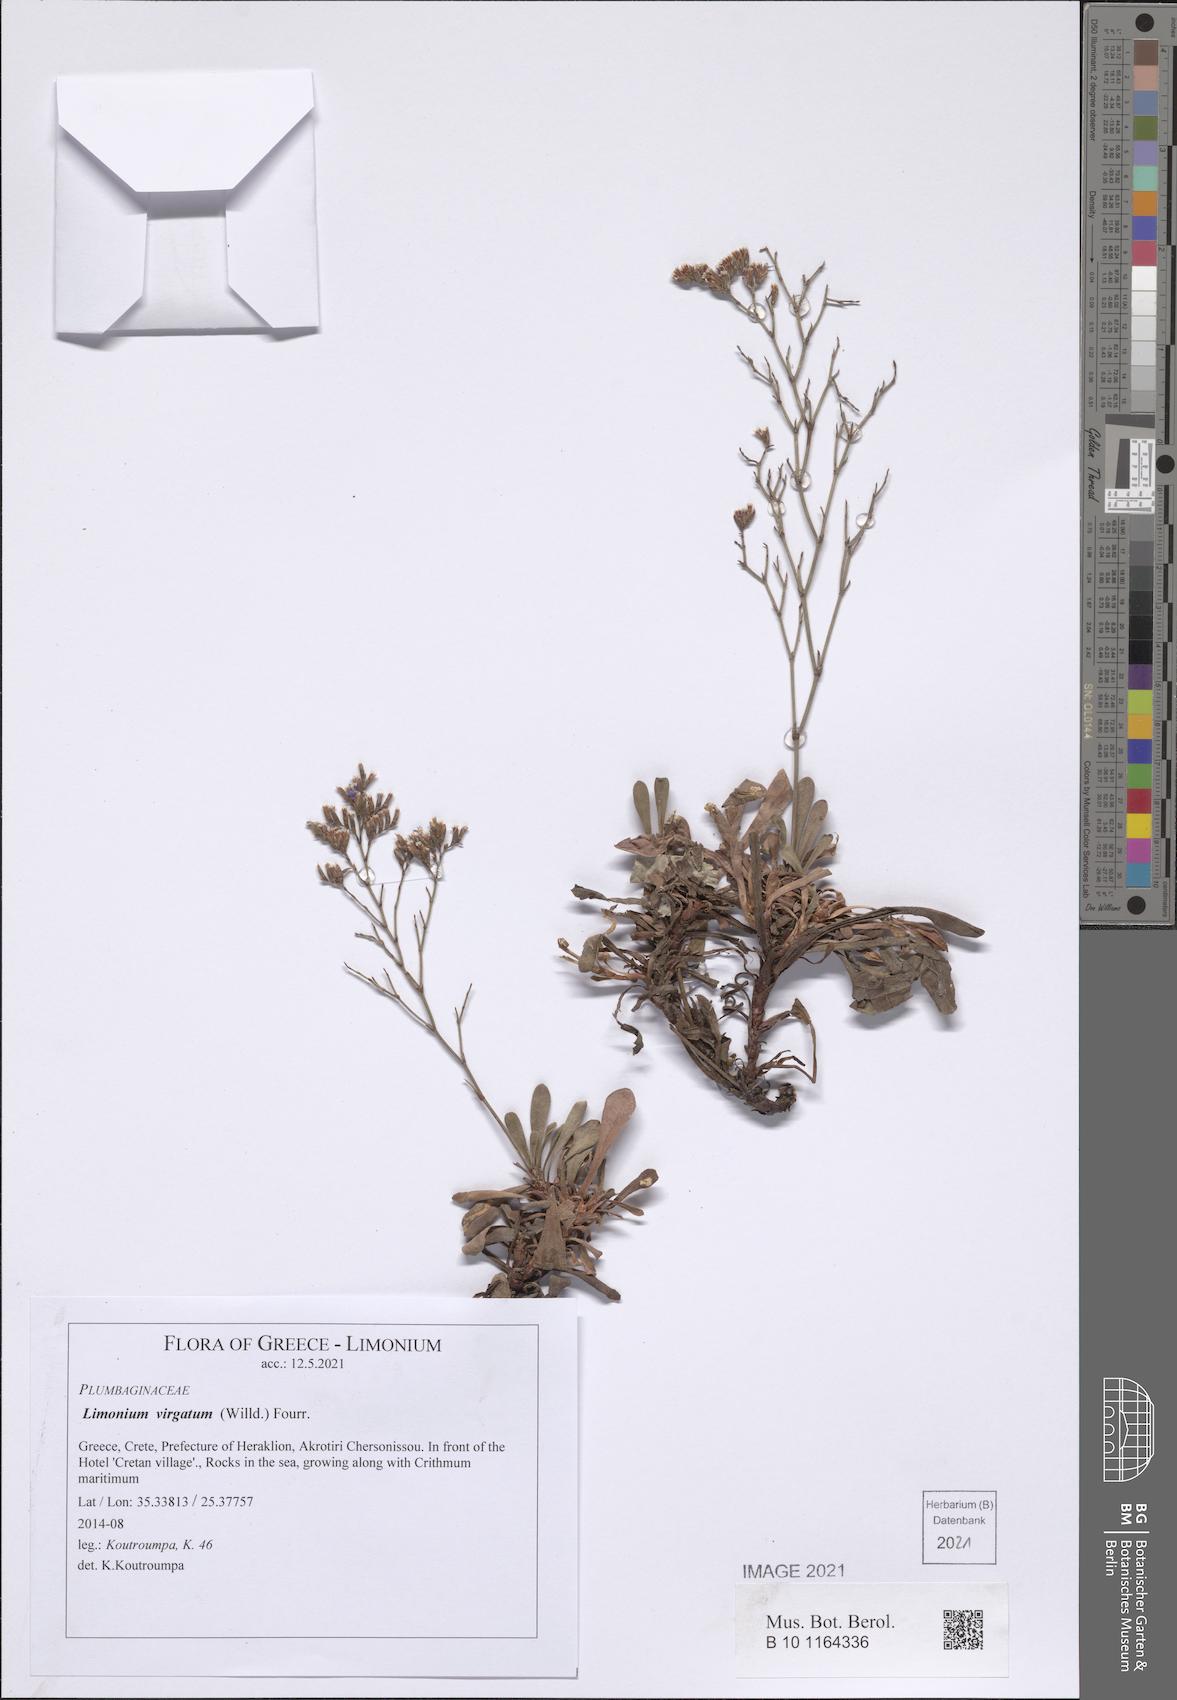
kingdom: Plantae
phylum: Tracheophyta
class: Magnoliopsida
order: Caryophyllales
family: Plumbaginaceae
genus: Limonium
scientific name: Limonium virgatum
